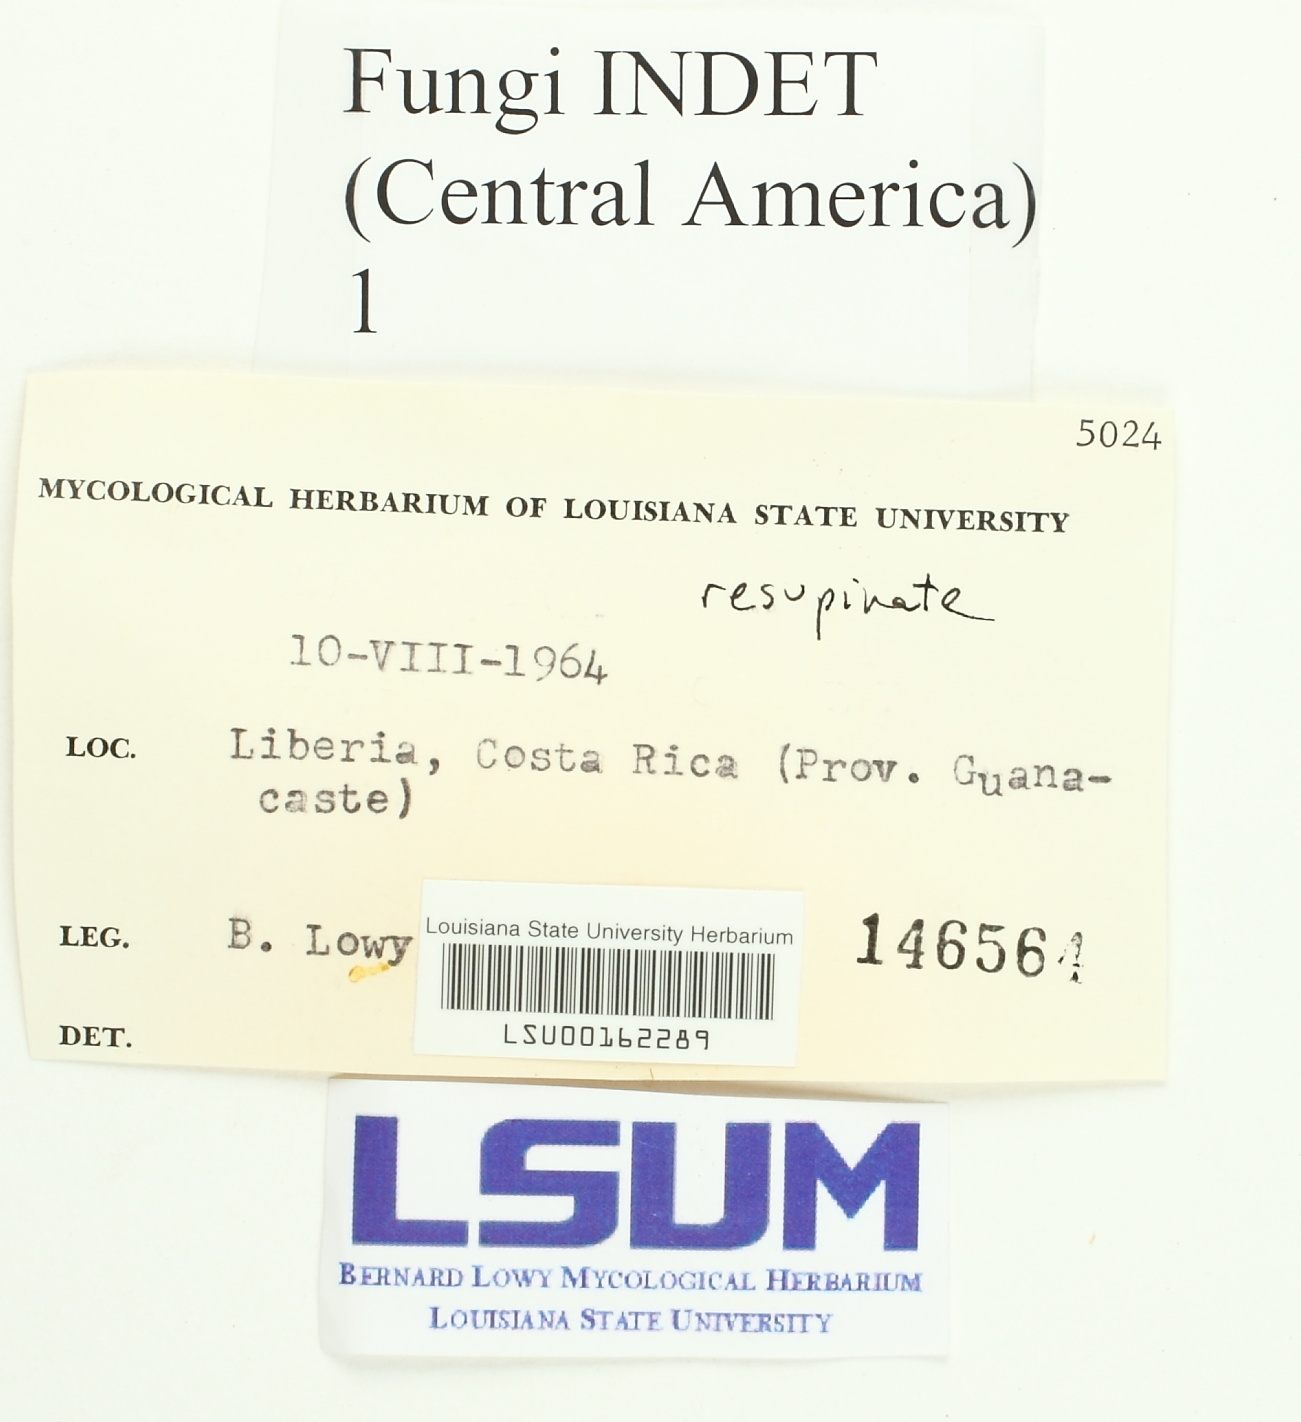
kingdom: Fungi
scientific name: Fungi
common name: Fungi
